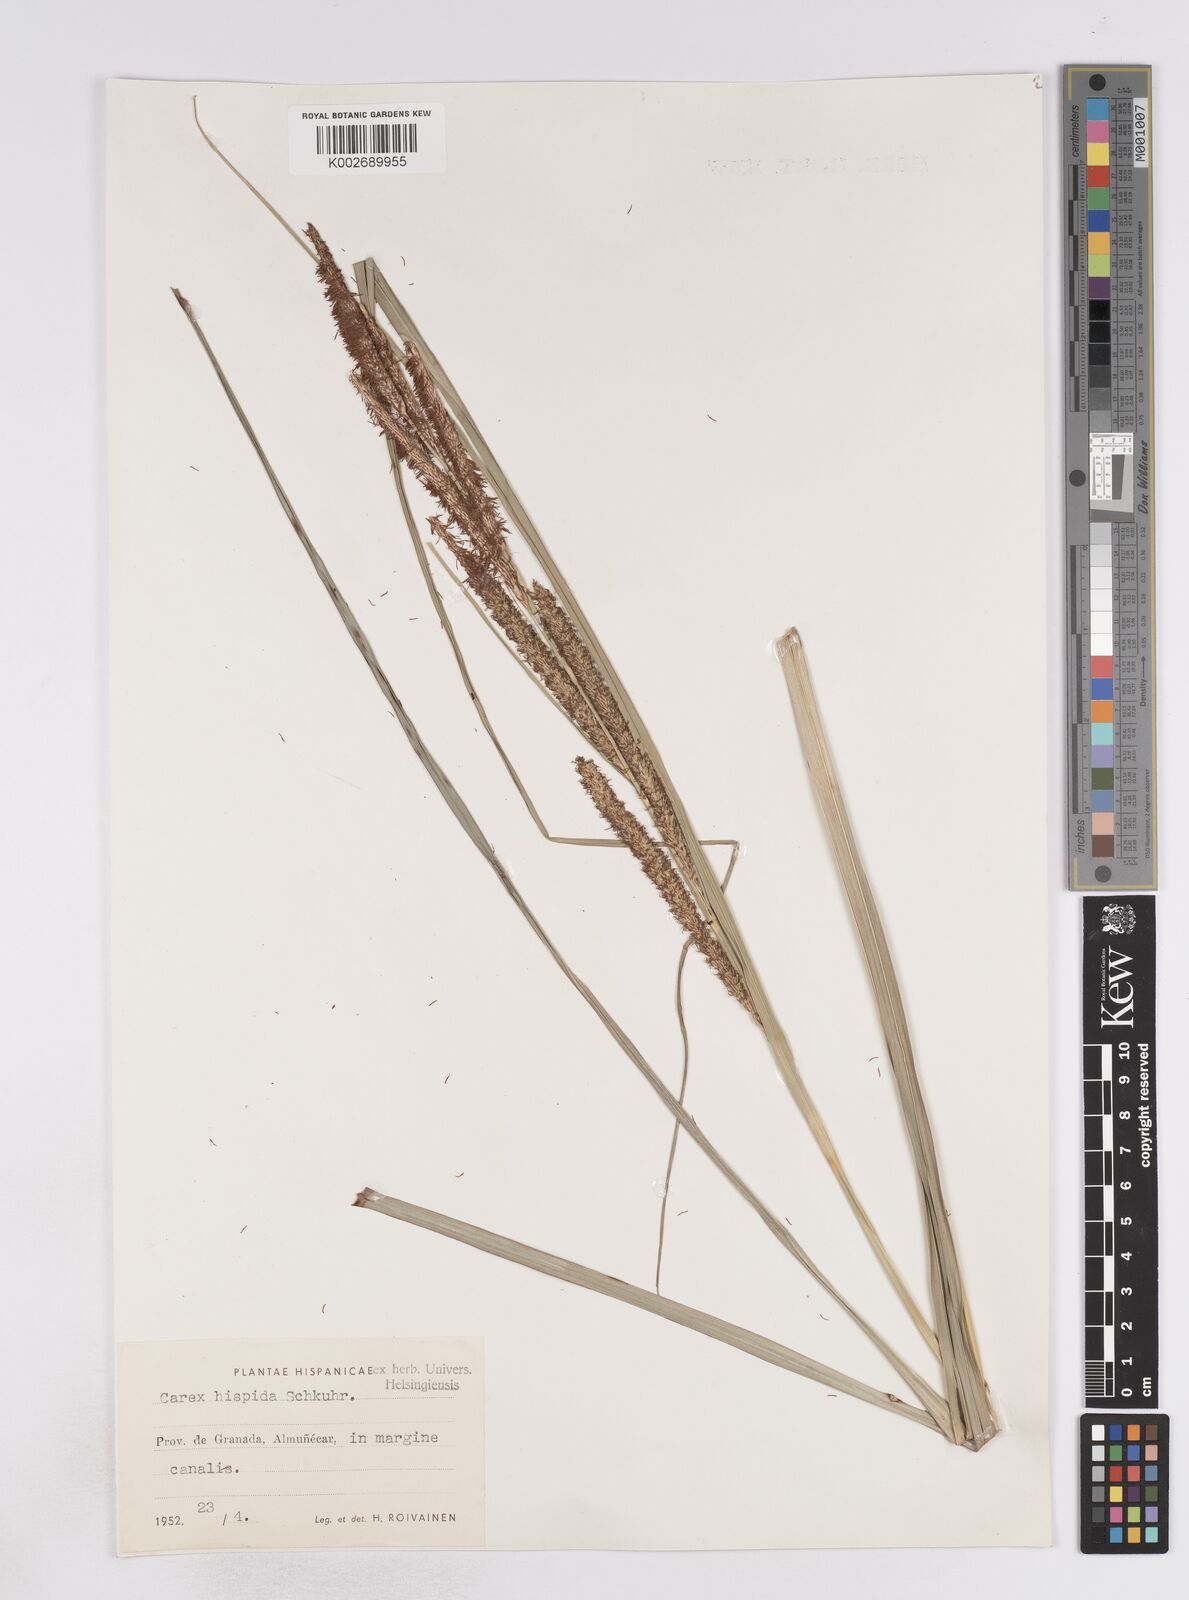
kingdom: Plantae
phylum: Tracheophyta
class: Liliopsida
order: Poales
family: Cyperaceae
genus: Carex
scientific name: Carex hispida
